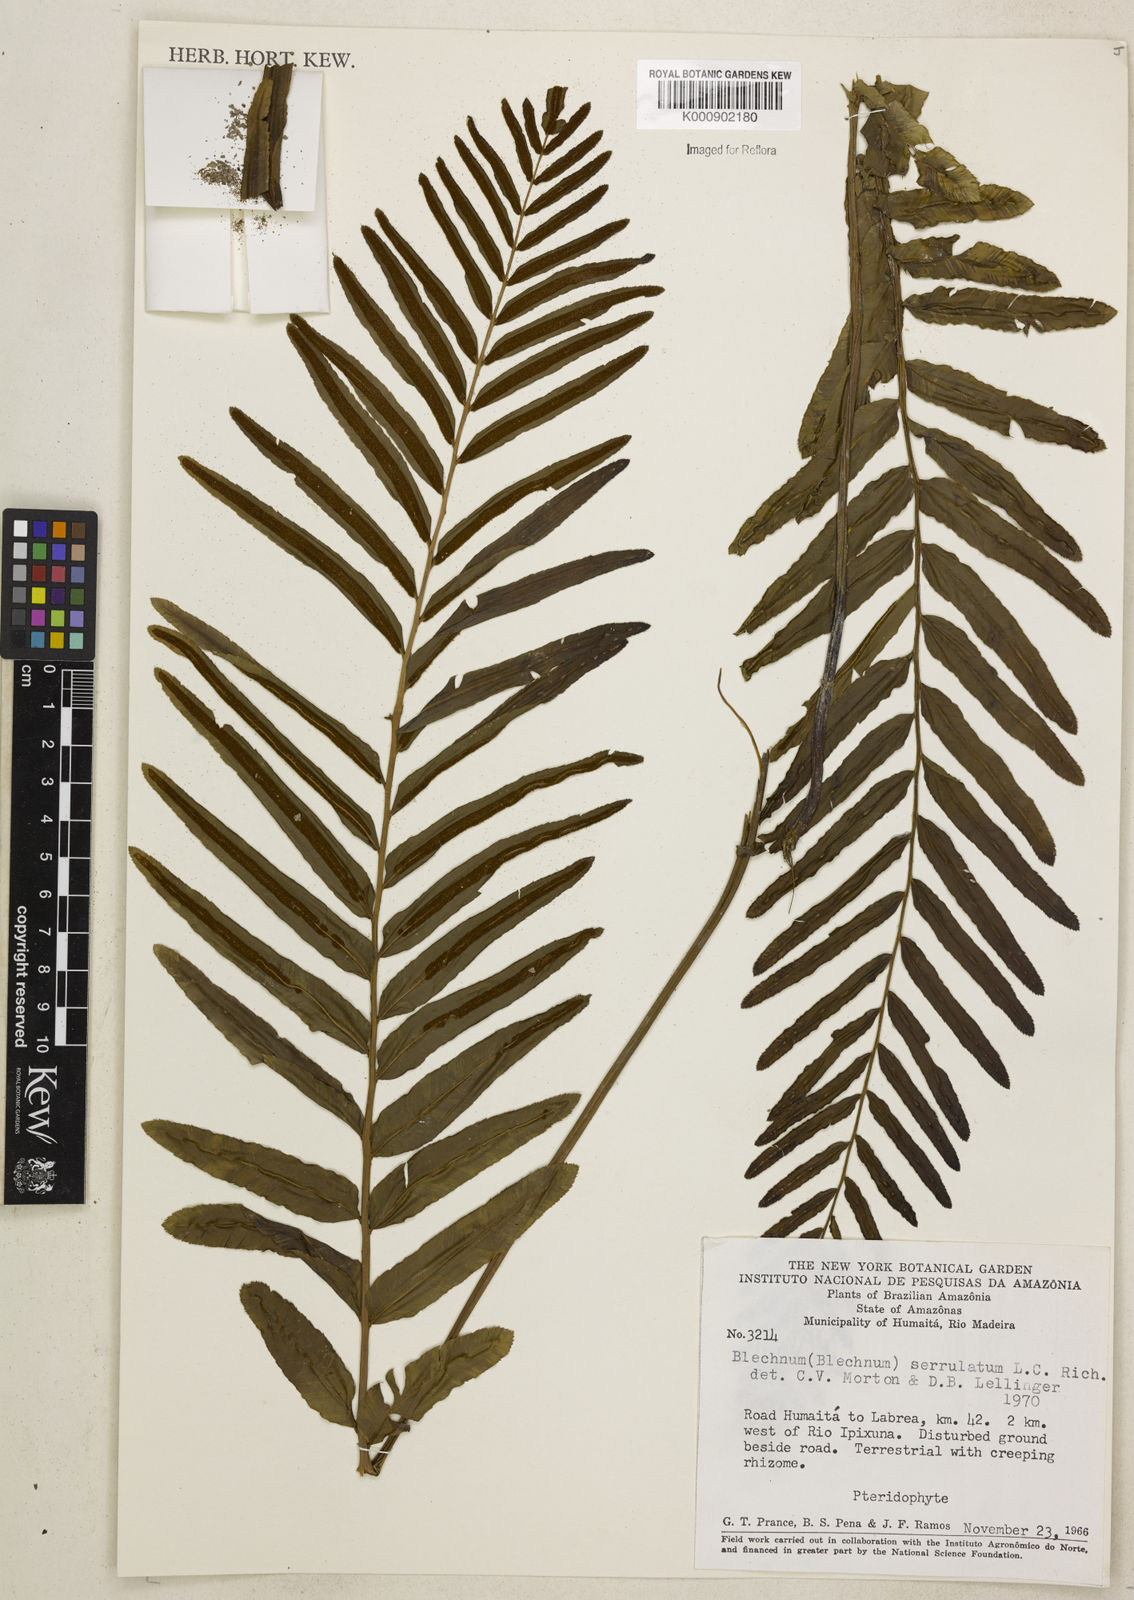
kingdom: Plantae
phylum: Tracheophyta
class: Polypodiopsida
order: Polypodiales
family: Blechnaceae
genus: Telmatoblechnum
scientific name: Telmatoblechnum serrulatum
